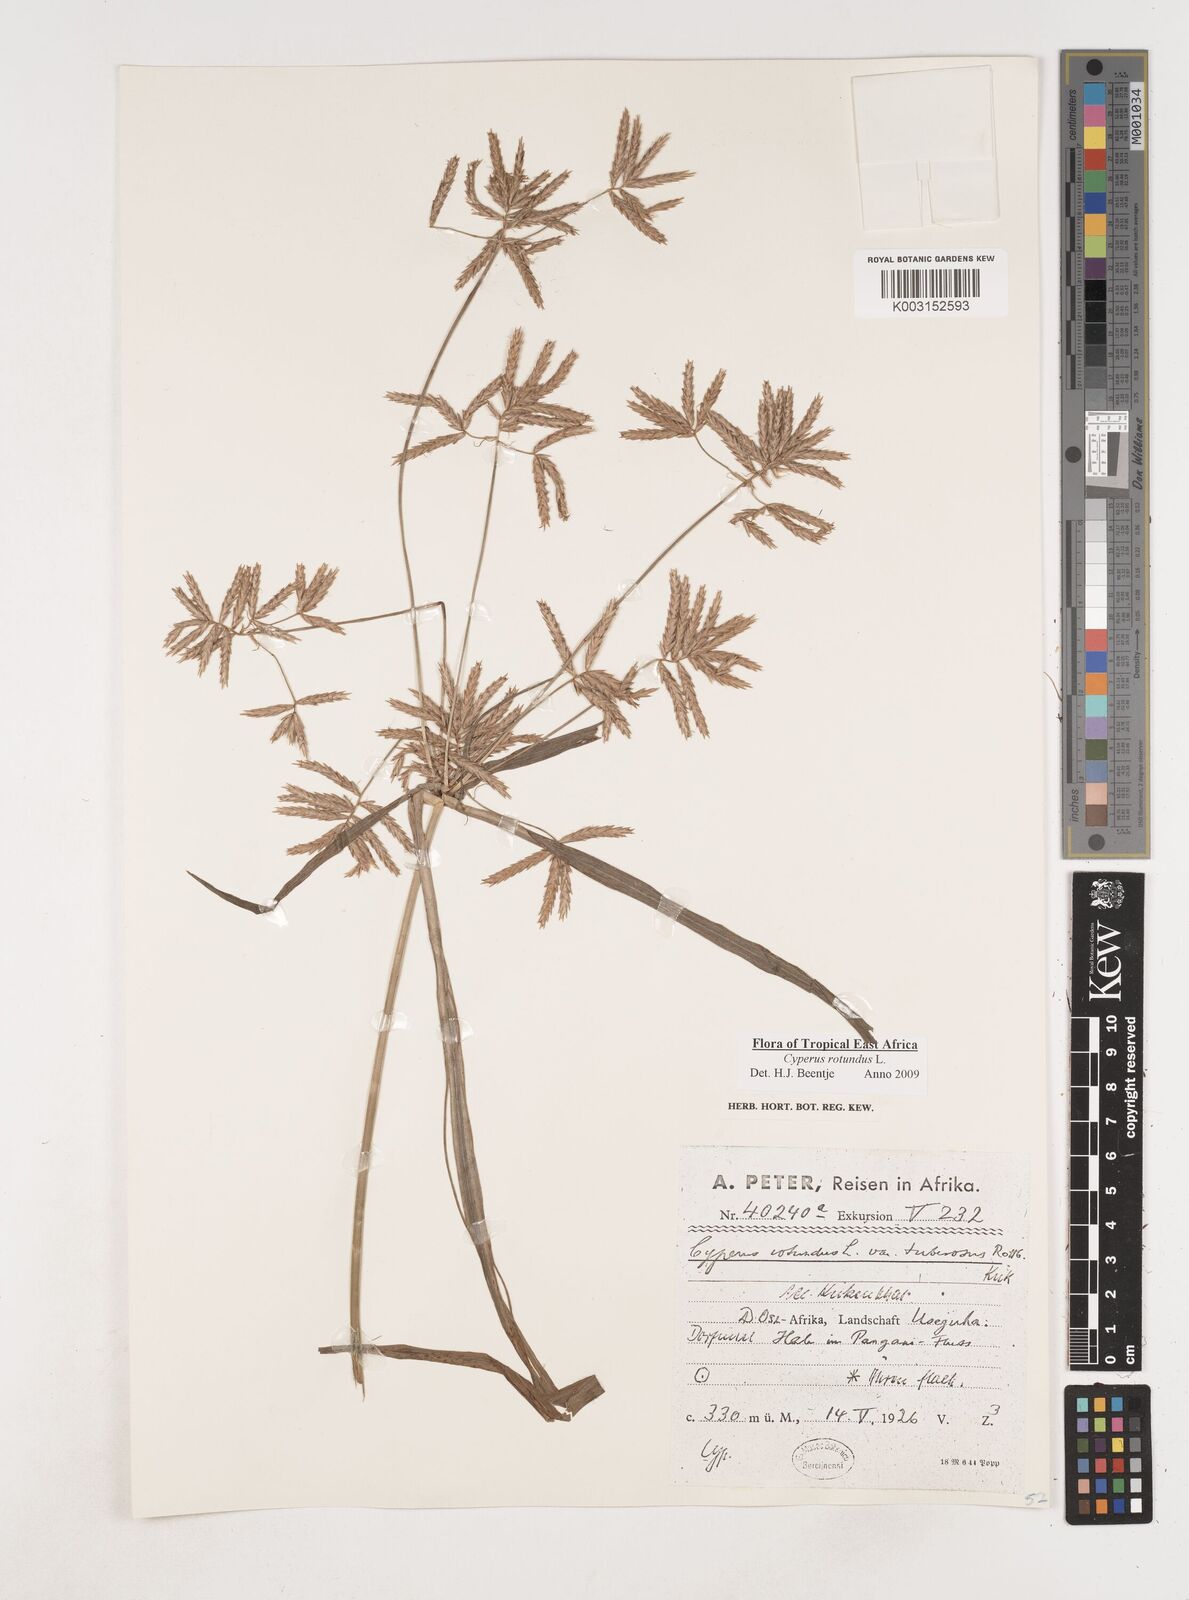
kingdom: Plantae
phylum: Tracheophyta
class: Liliopsida
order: Poales
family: Cyperaceae
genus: Cyperus
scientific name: Cyperus rotundus
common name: Nutgrass
